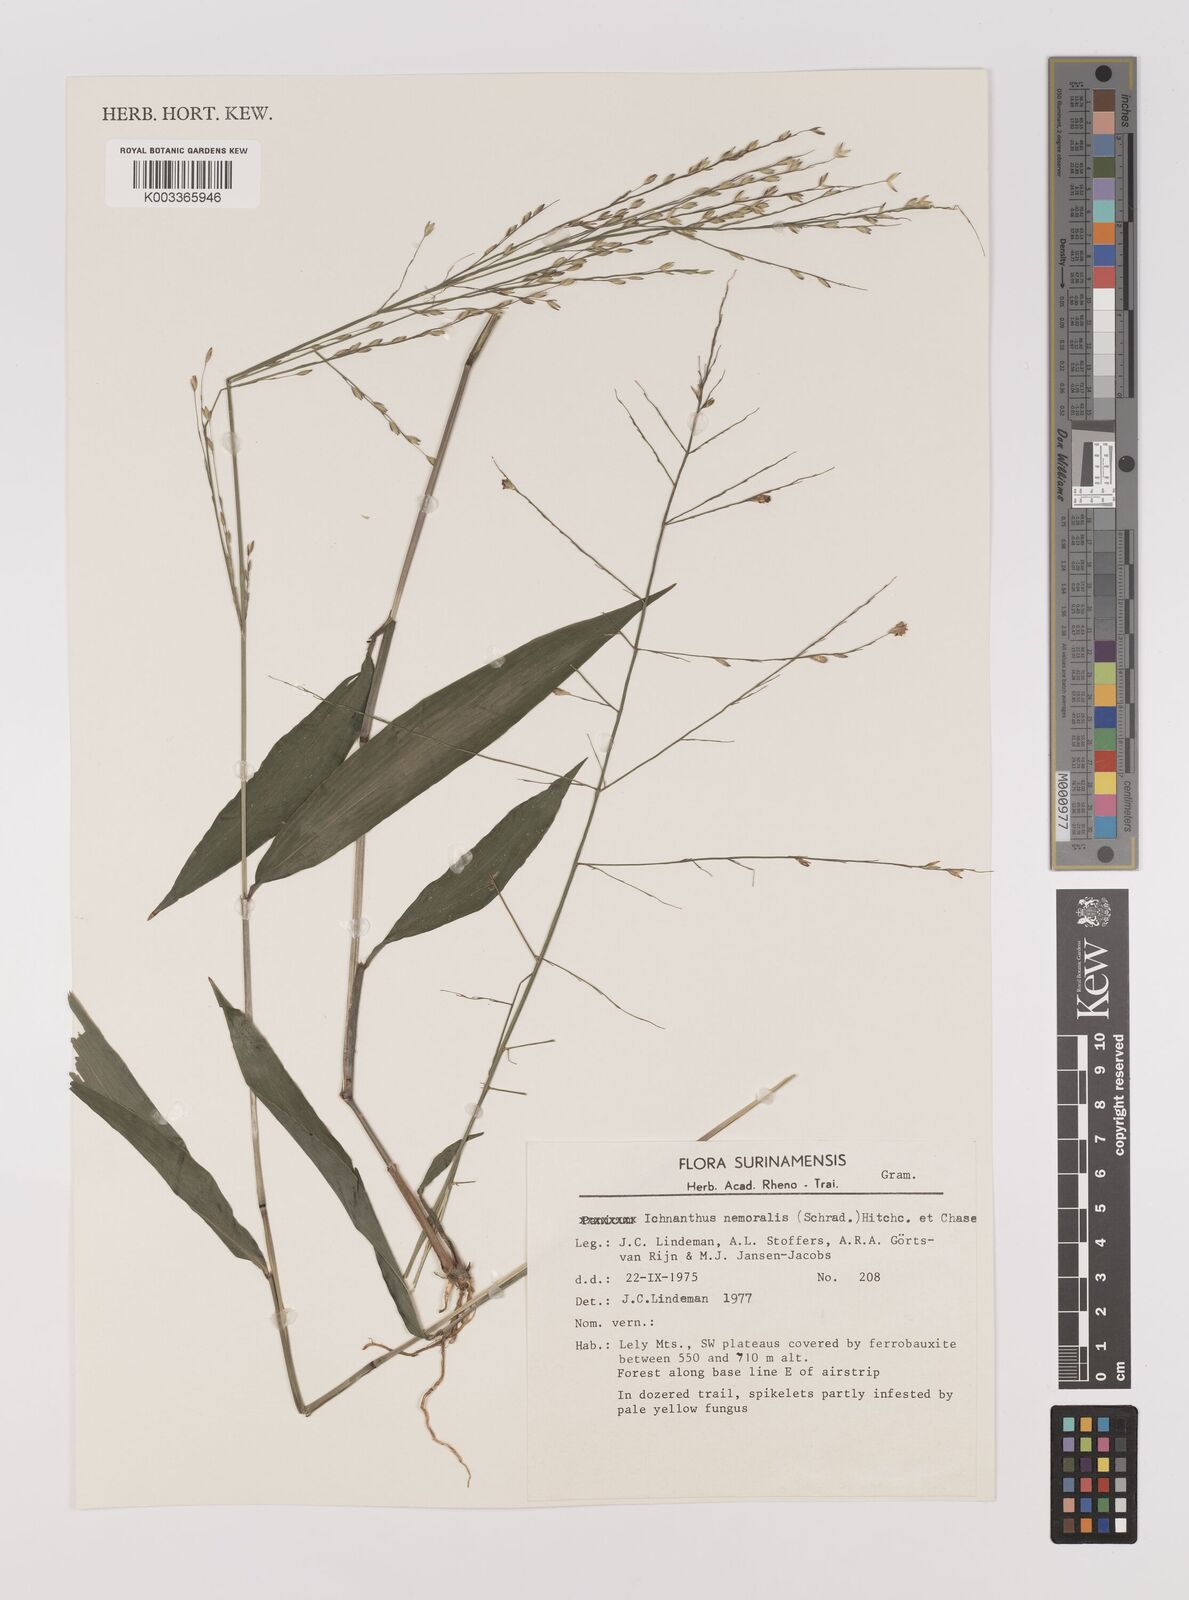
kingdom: Plantae
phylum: Tracheophyta
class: Liliopsida
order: Poales
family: Poaceae
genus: Ichnanthus
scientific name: Ichnanthus nemoralis
